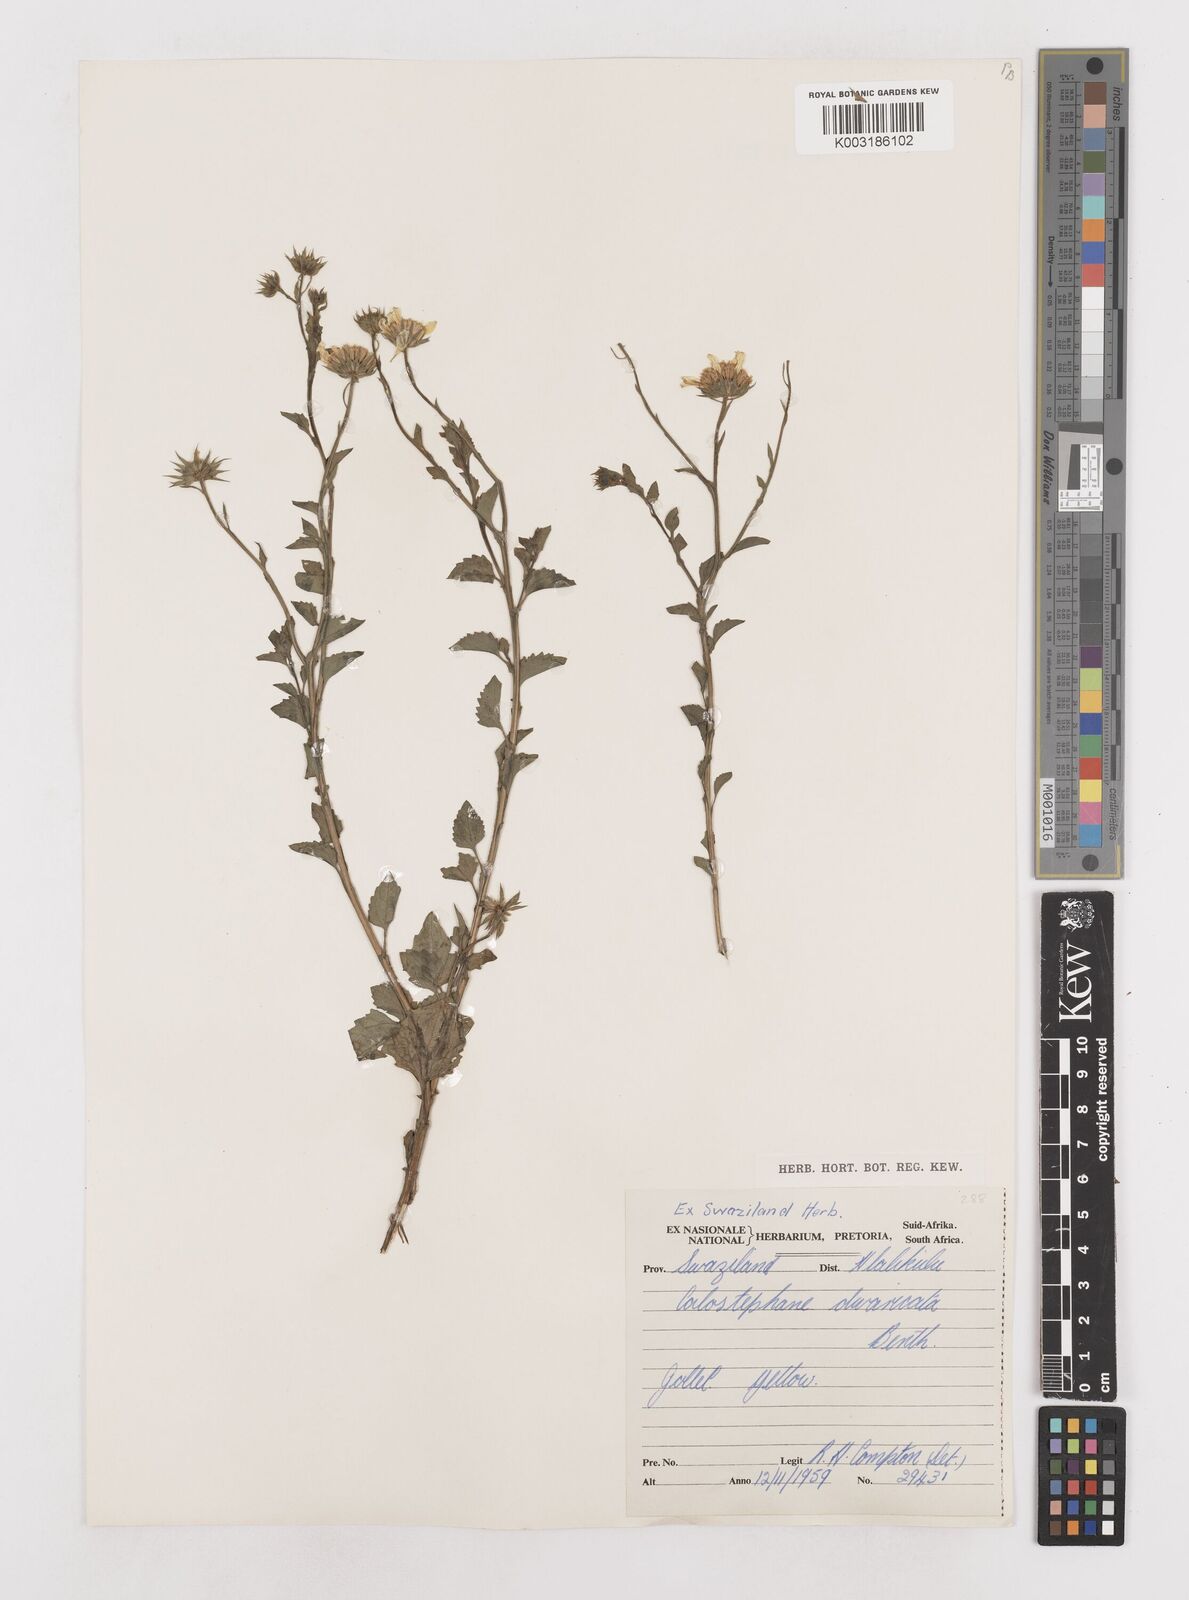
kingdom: Plantae
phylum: Tracheophyta
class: Magnoliopsida
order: Asterales
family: Asteraceae
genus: Calostephane
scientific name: Calostephane divaricata
